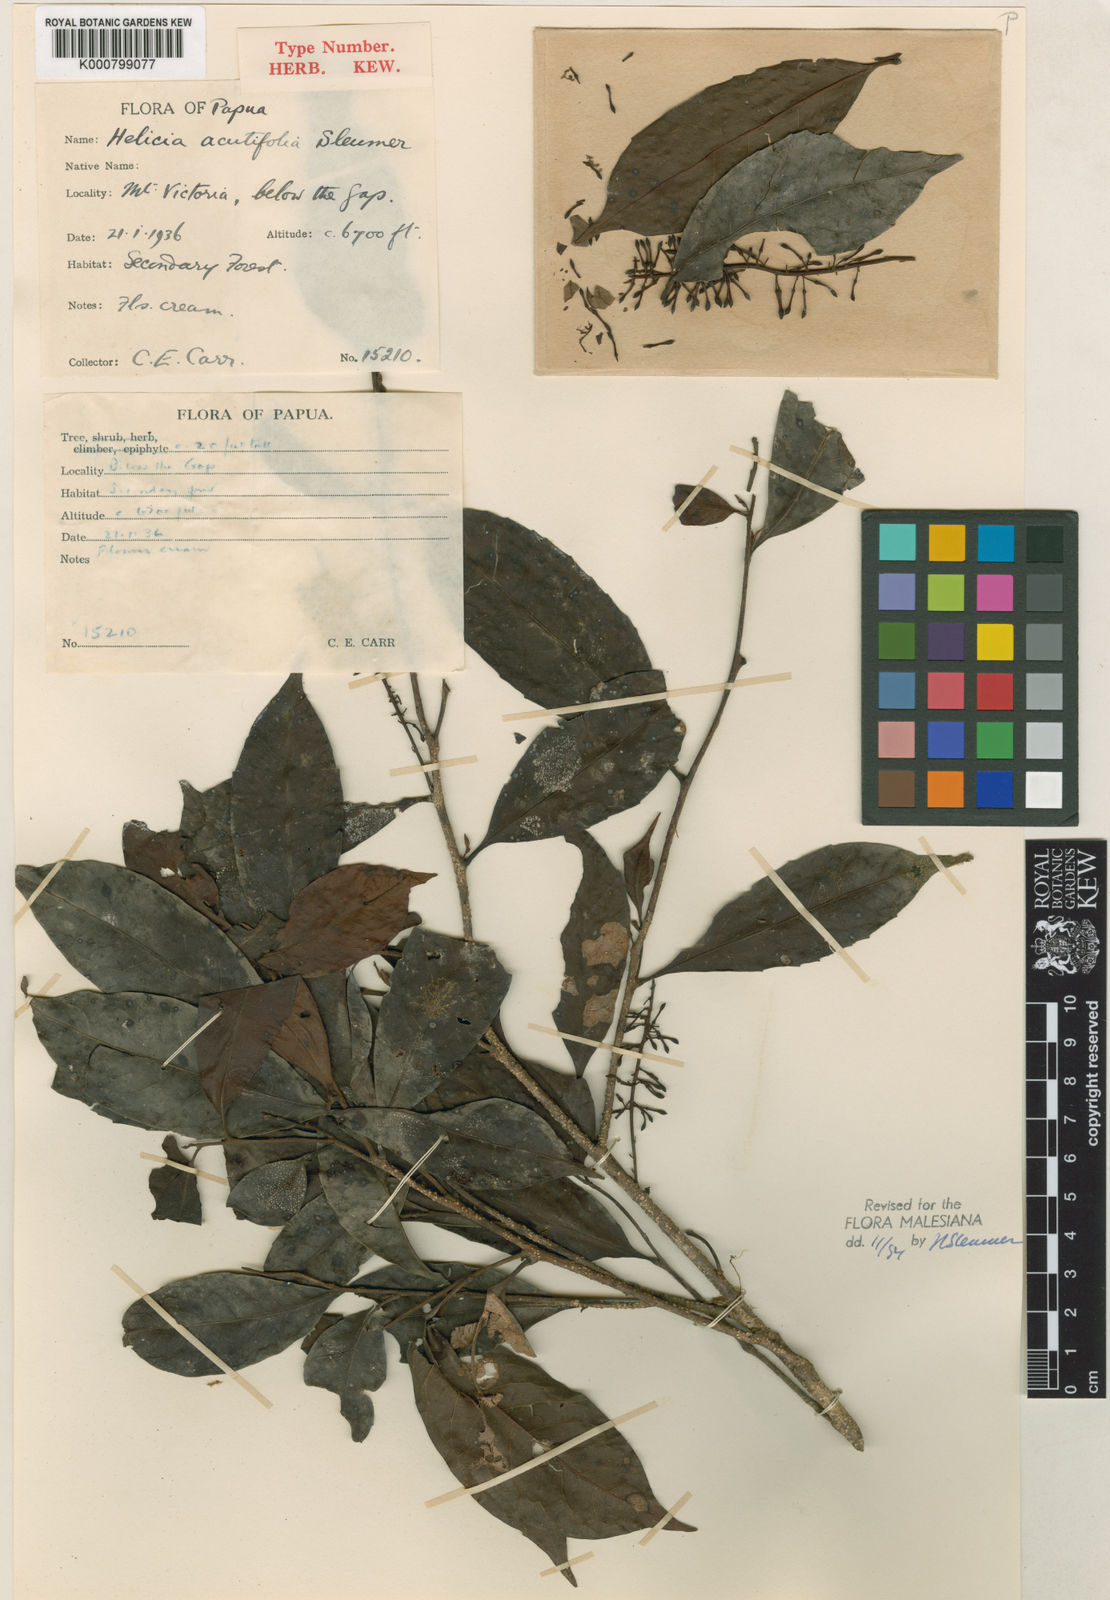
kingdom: Plantae
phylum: Tracheophyta
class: Magnoliopsida
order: Proteales
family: Proteaceae
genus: Helicia
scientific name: Helicia acutifolia
